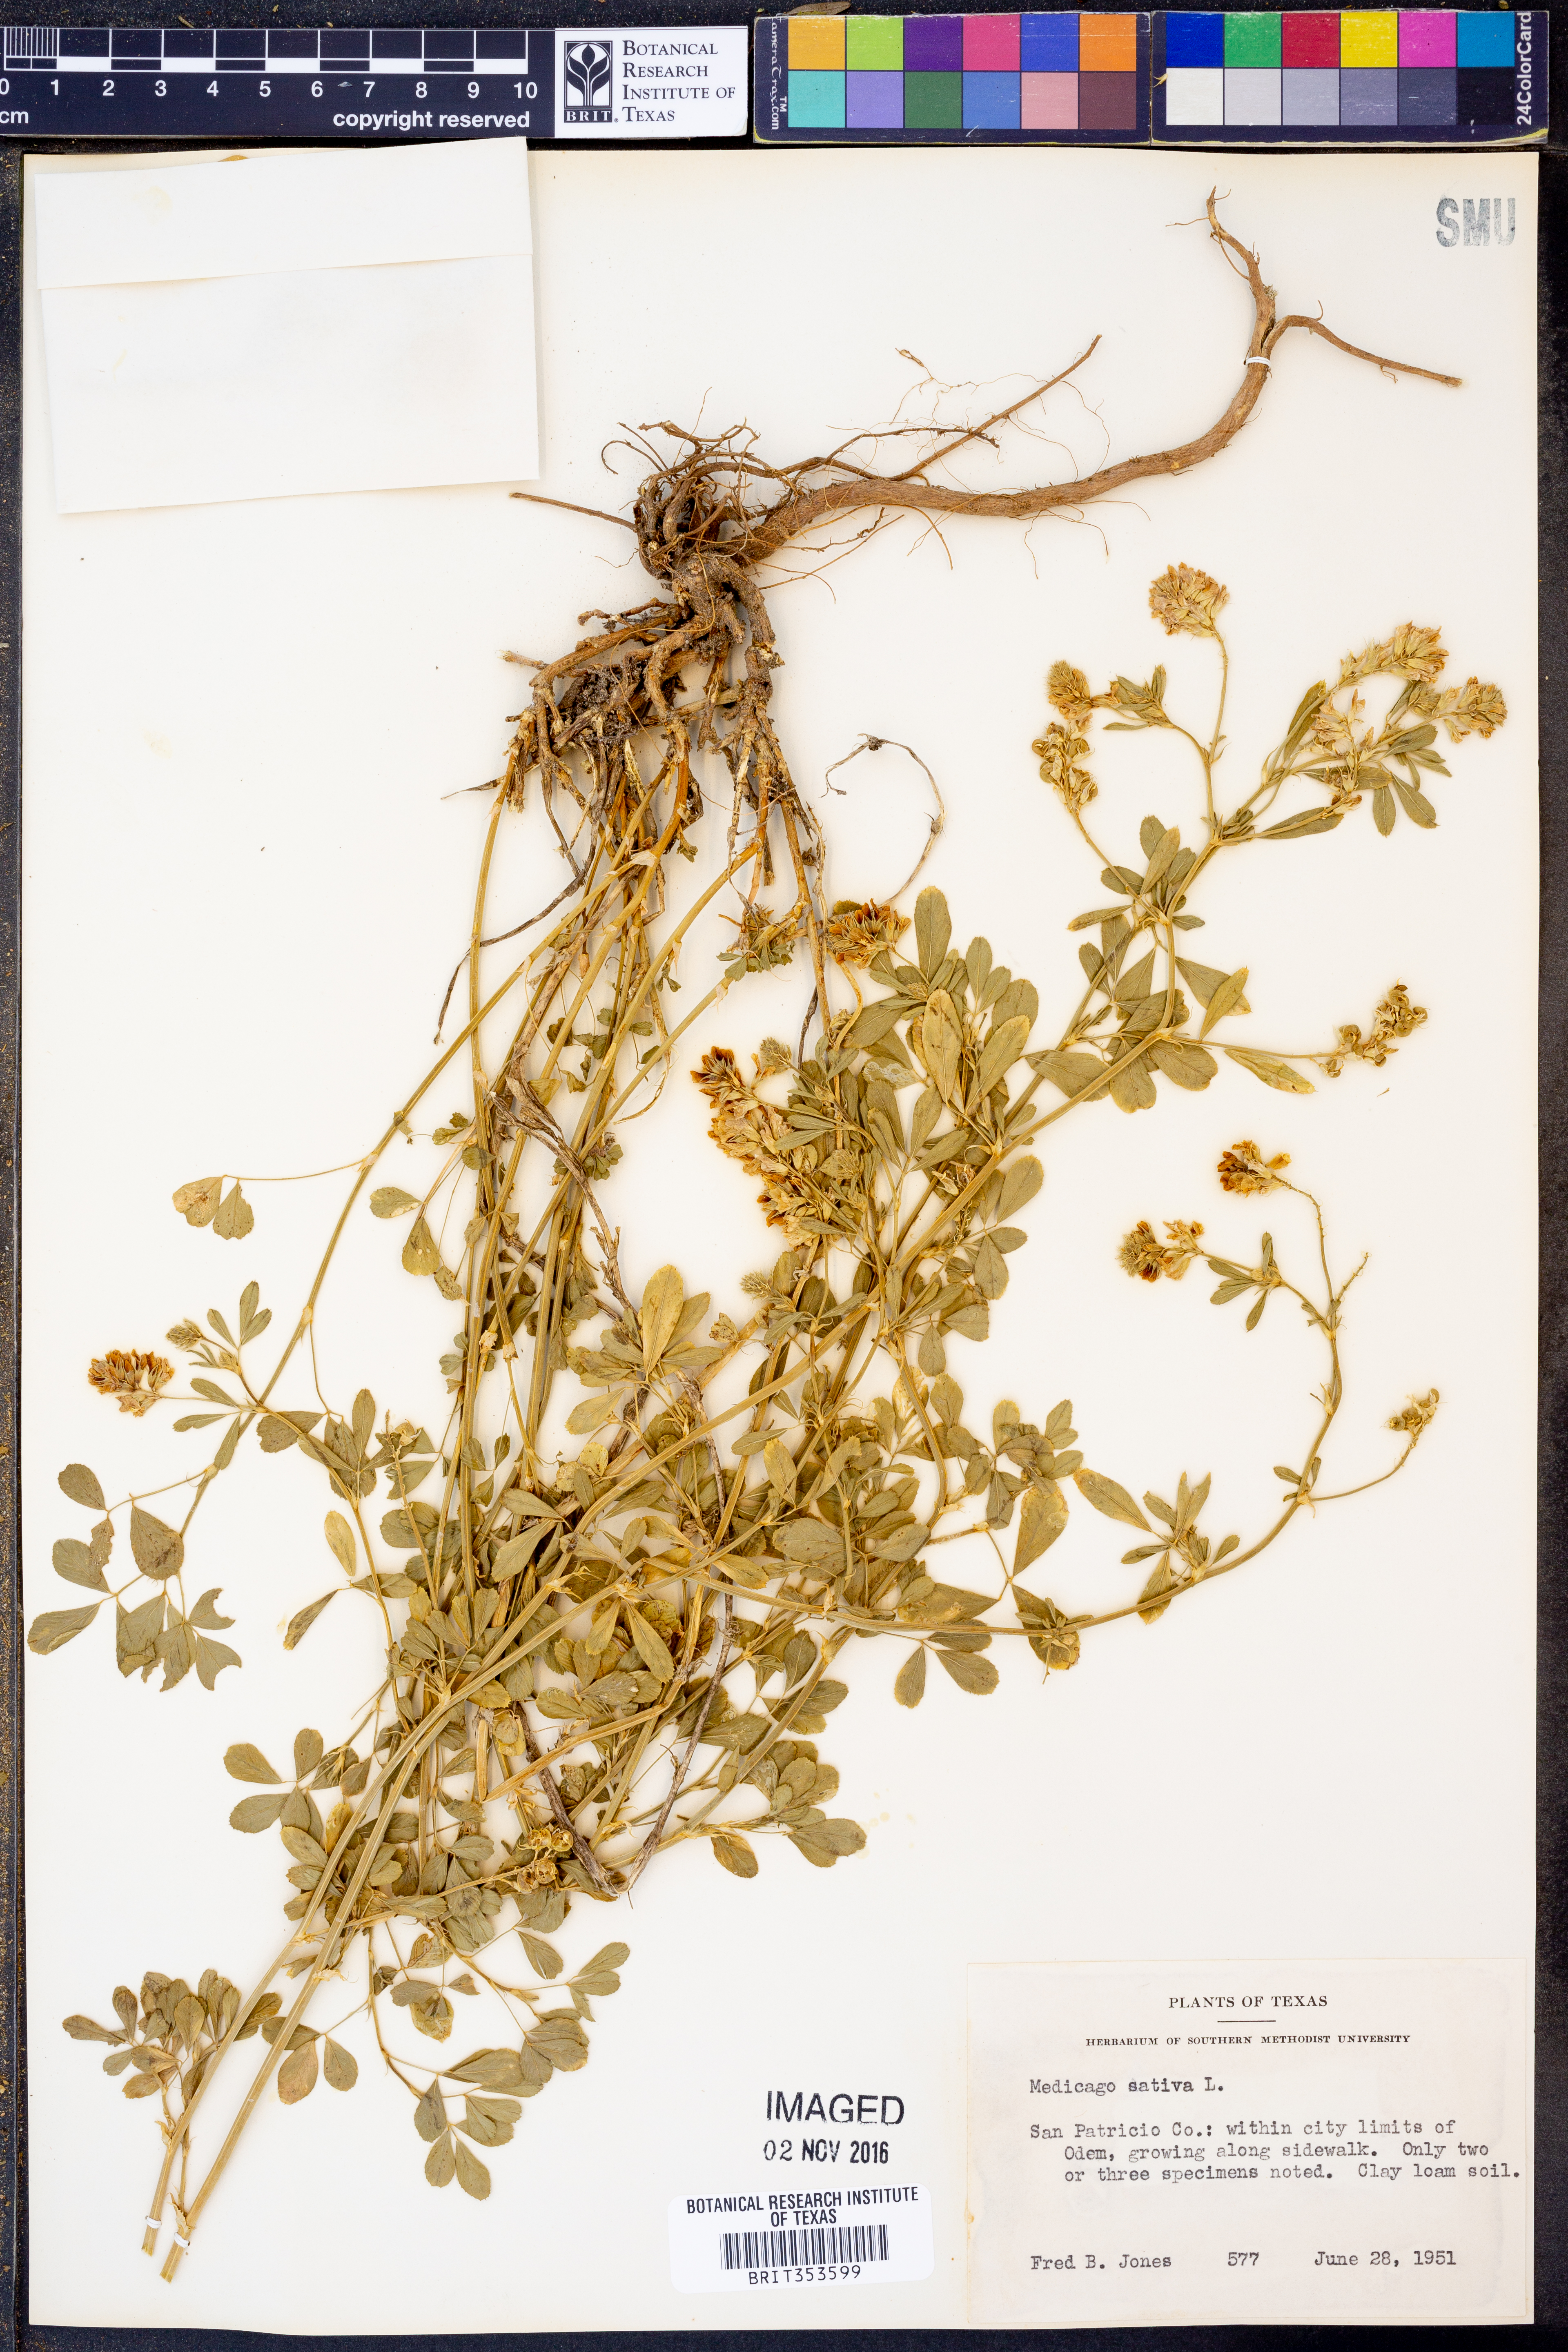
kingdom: Plantae
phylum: Tracheophyta
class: Magnoliopsida
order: Fabales
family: Fabaceae
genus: Medicago
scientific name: Medicago sativa
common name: Alfalfa
